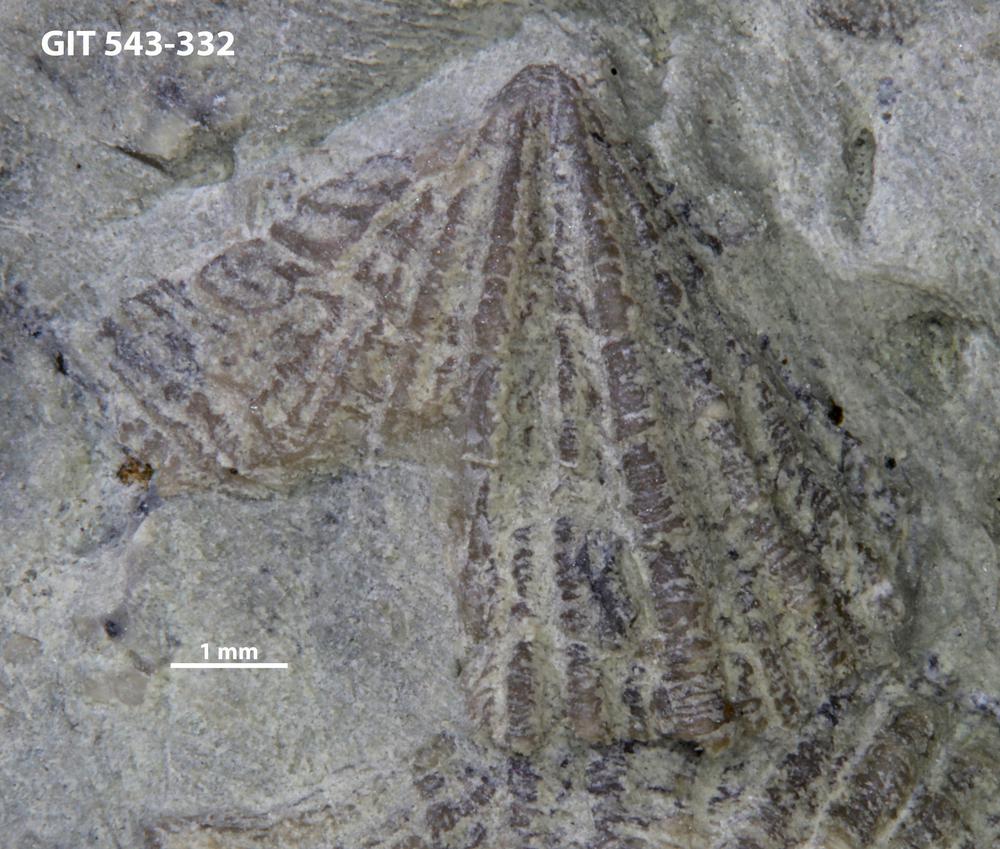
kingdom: Animalia
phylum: Brachiopoda
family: Kullervoidae
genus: Kullervo
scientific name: Kullervo
